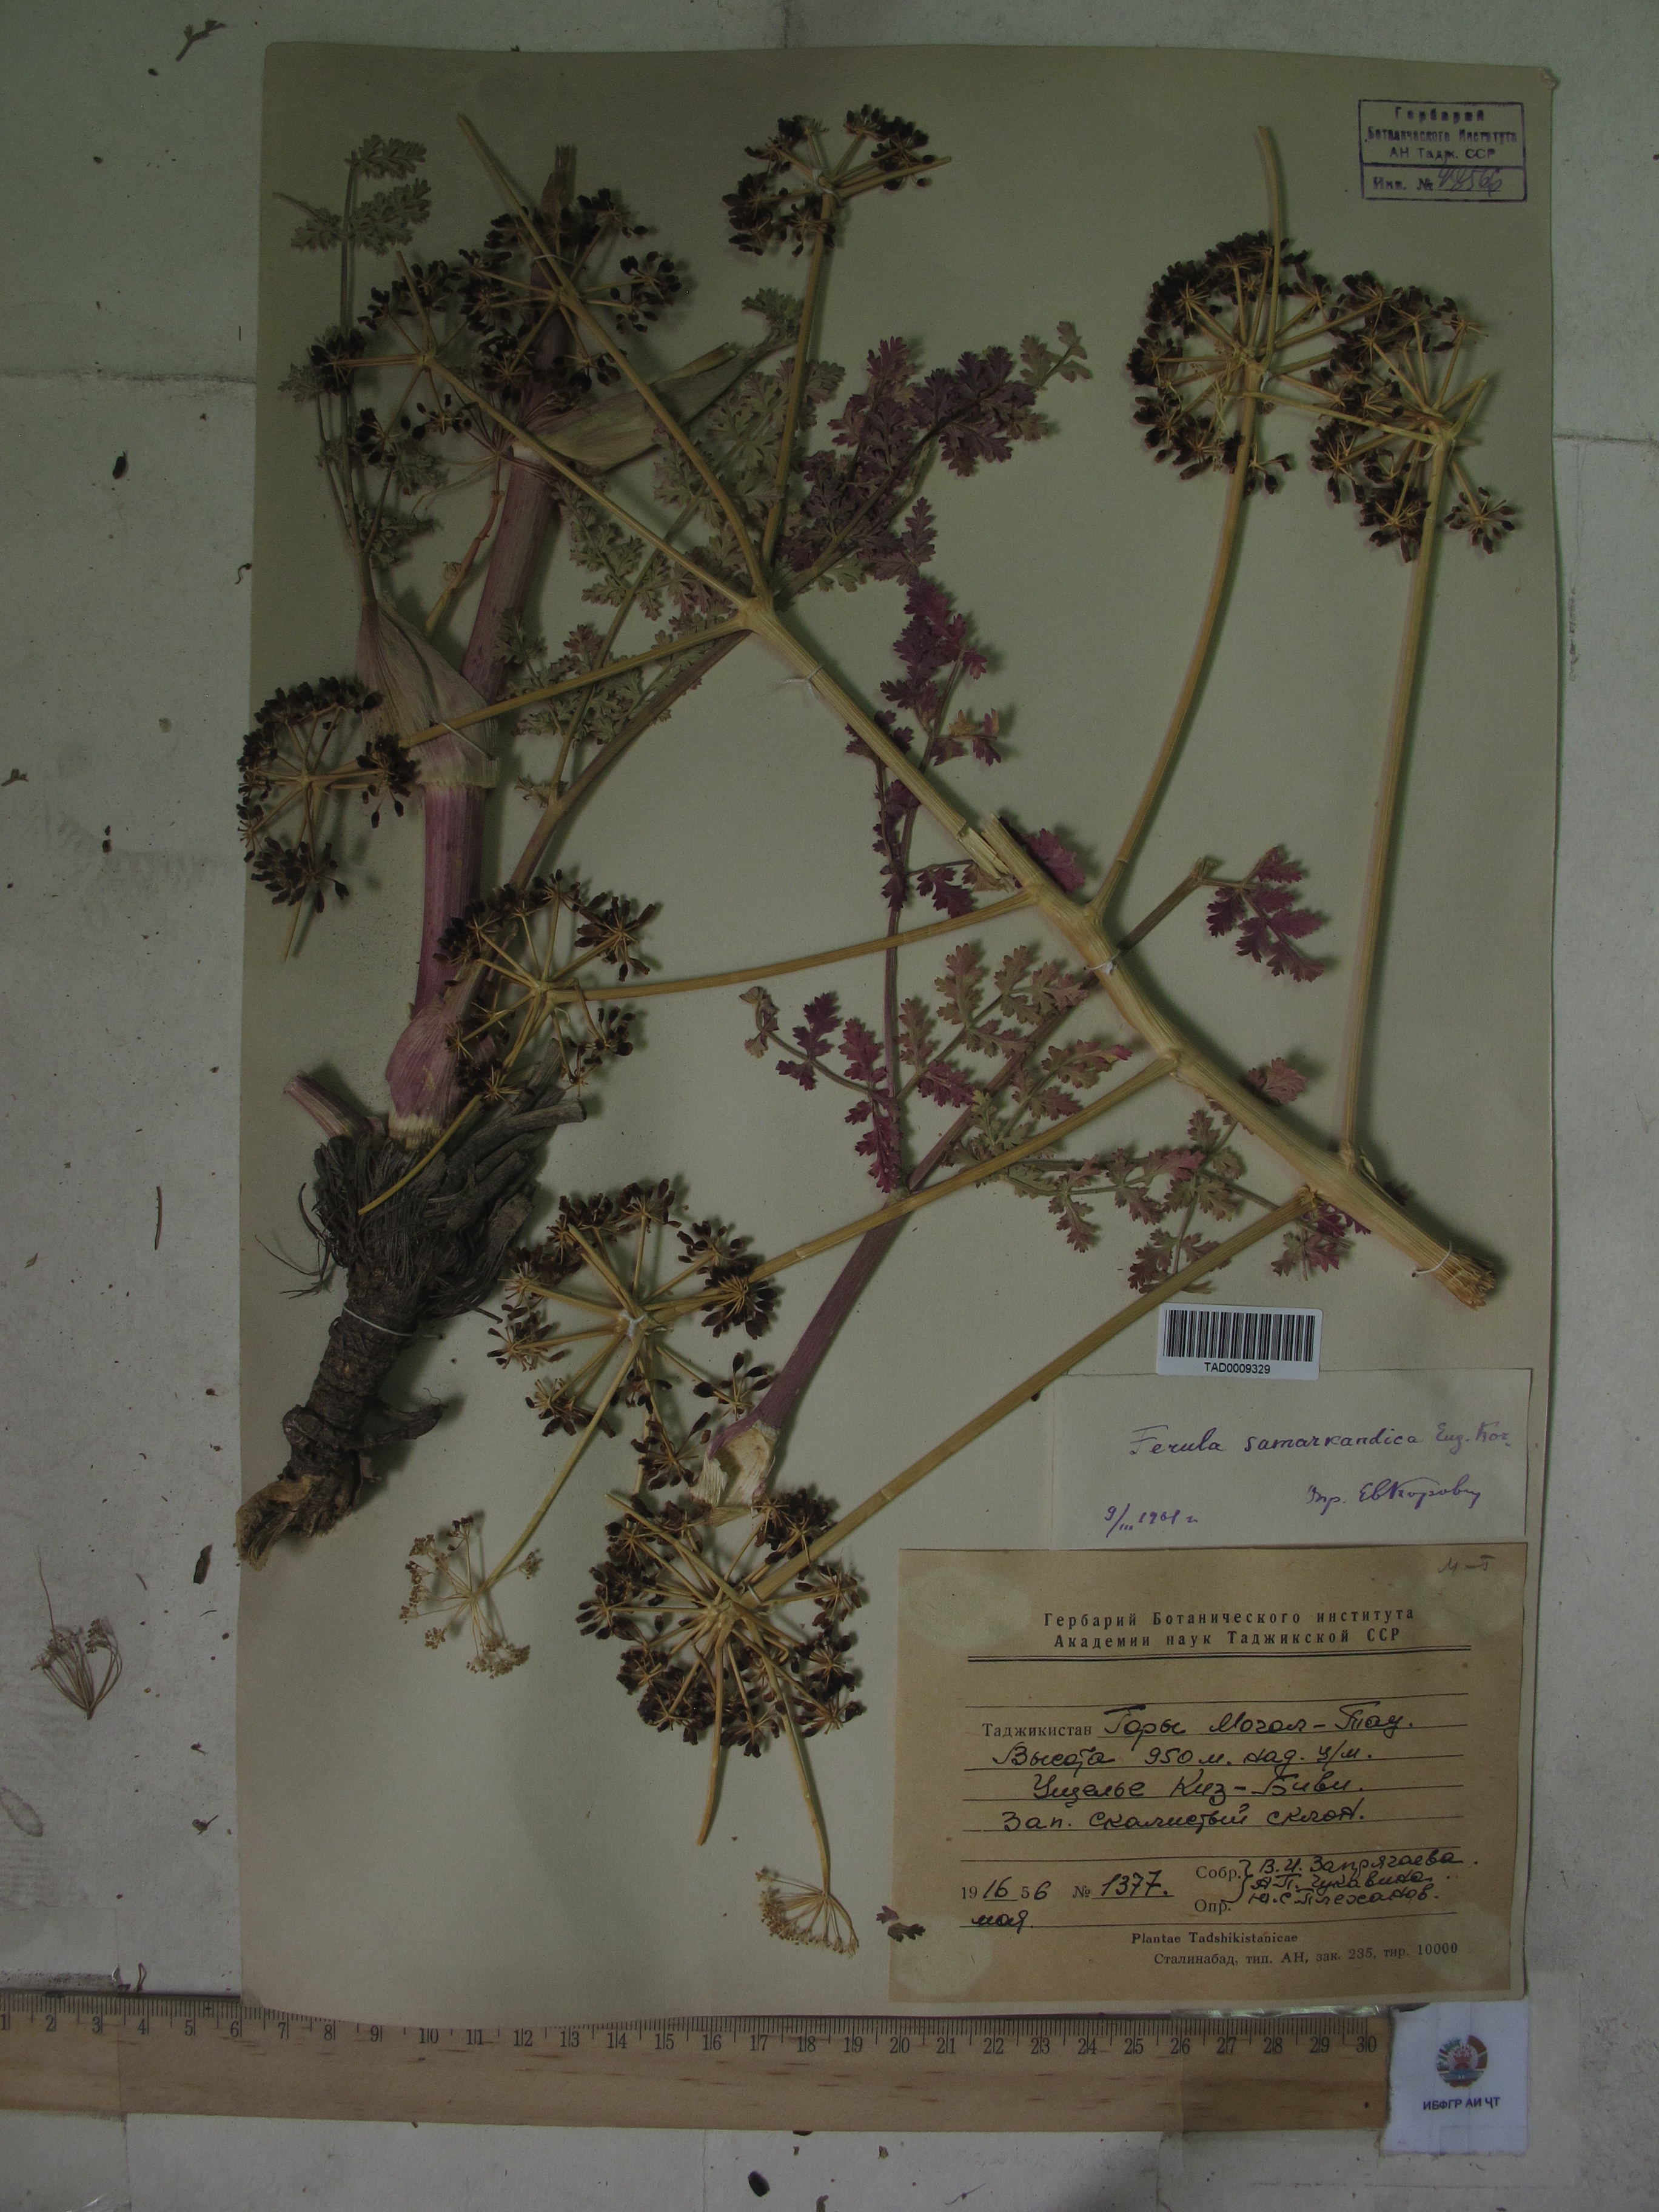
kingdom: Plantae
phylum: Tracheophyta
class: Magnoliopsida
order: Apiales
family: Apiaceae
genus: Ferula
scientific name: Ferula samarkandica
